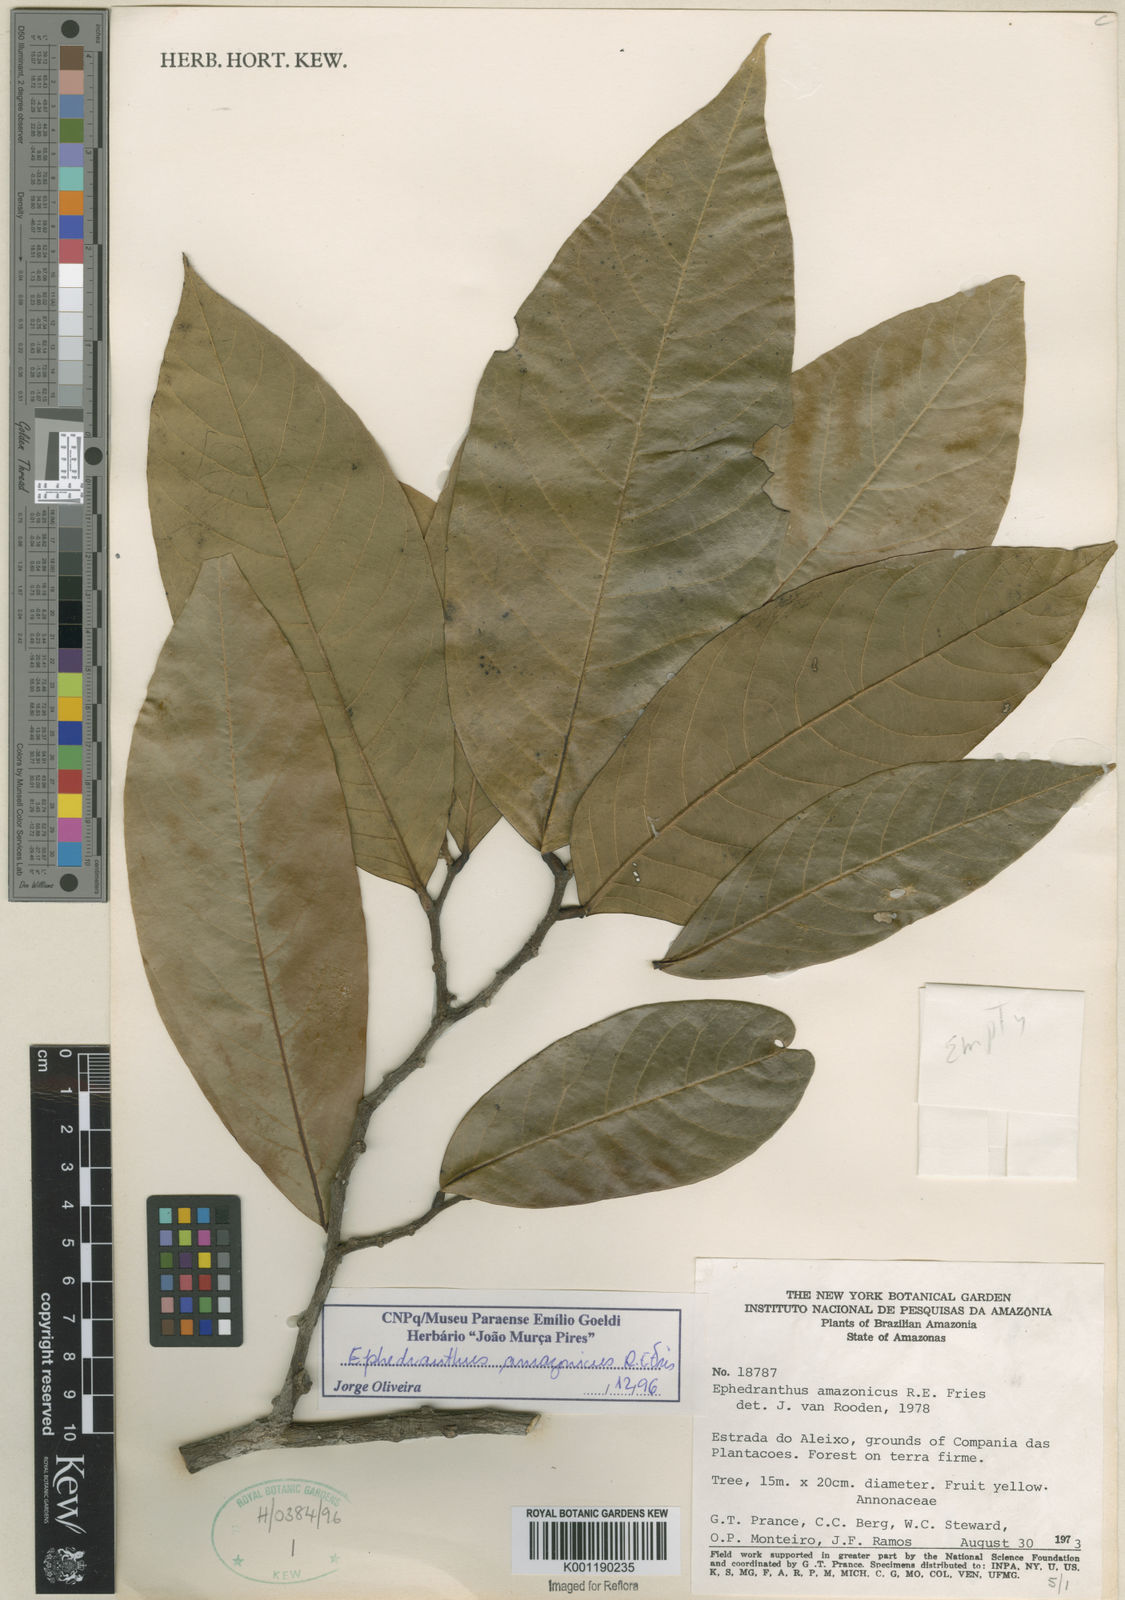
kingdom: Plantae
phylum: Tracheophyta
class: Magnoliopsida
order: Magnoliales
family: Annonaceae
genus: Ephedranthus
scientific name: Ephedranthus amazonicus
